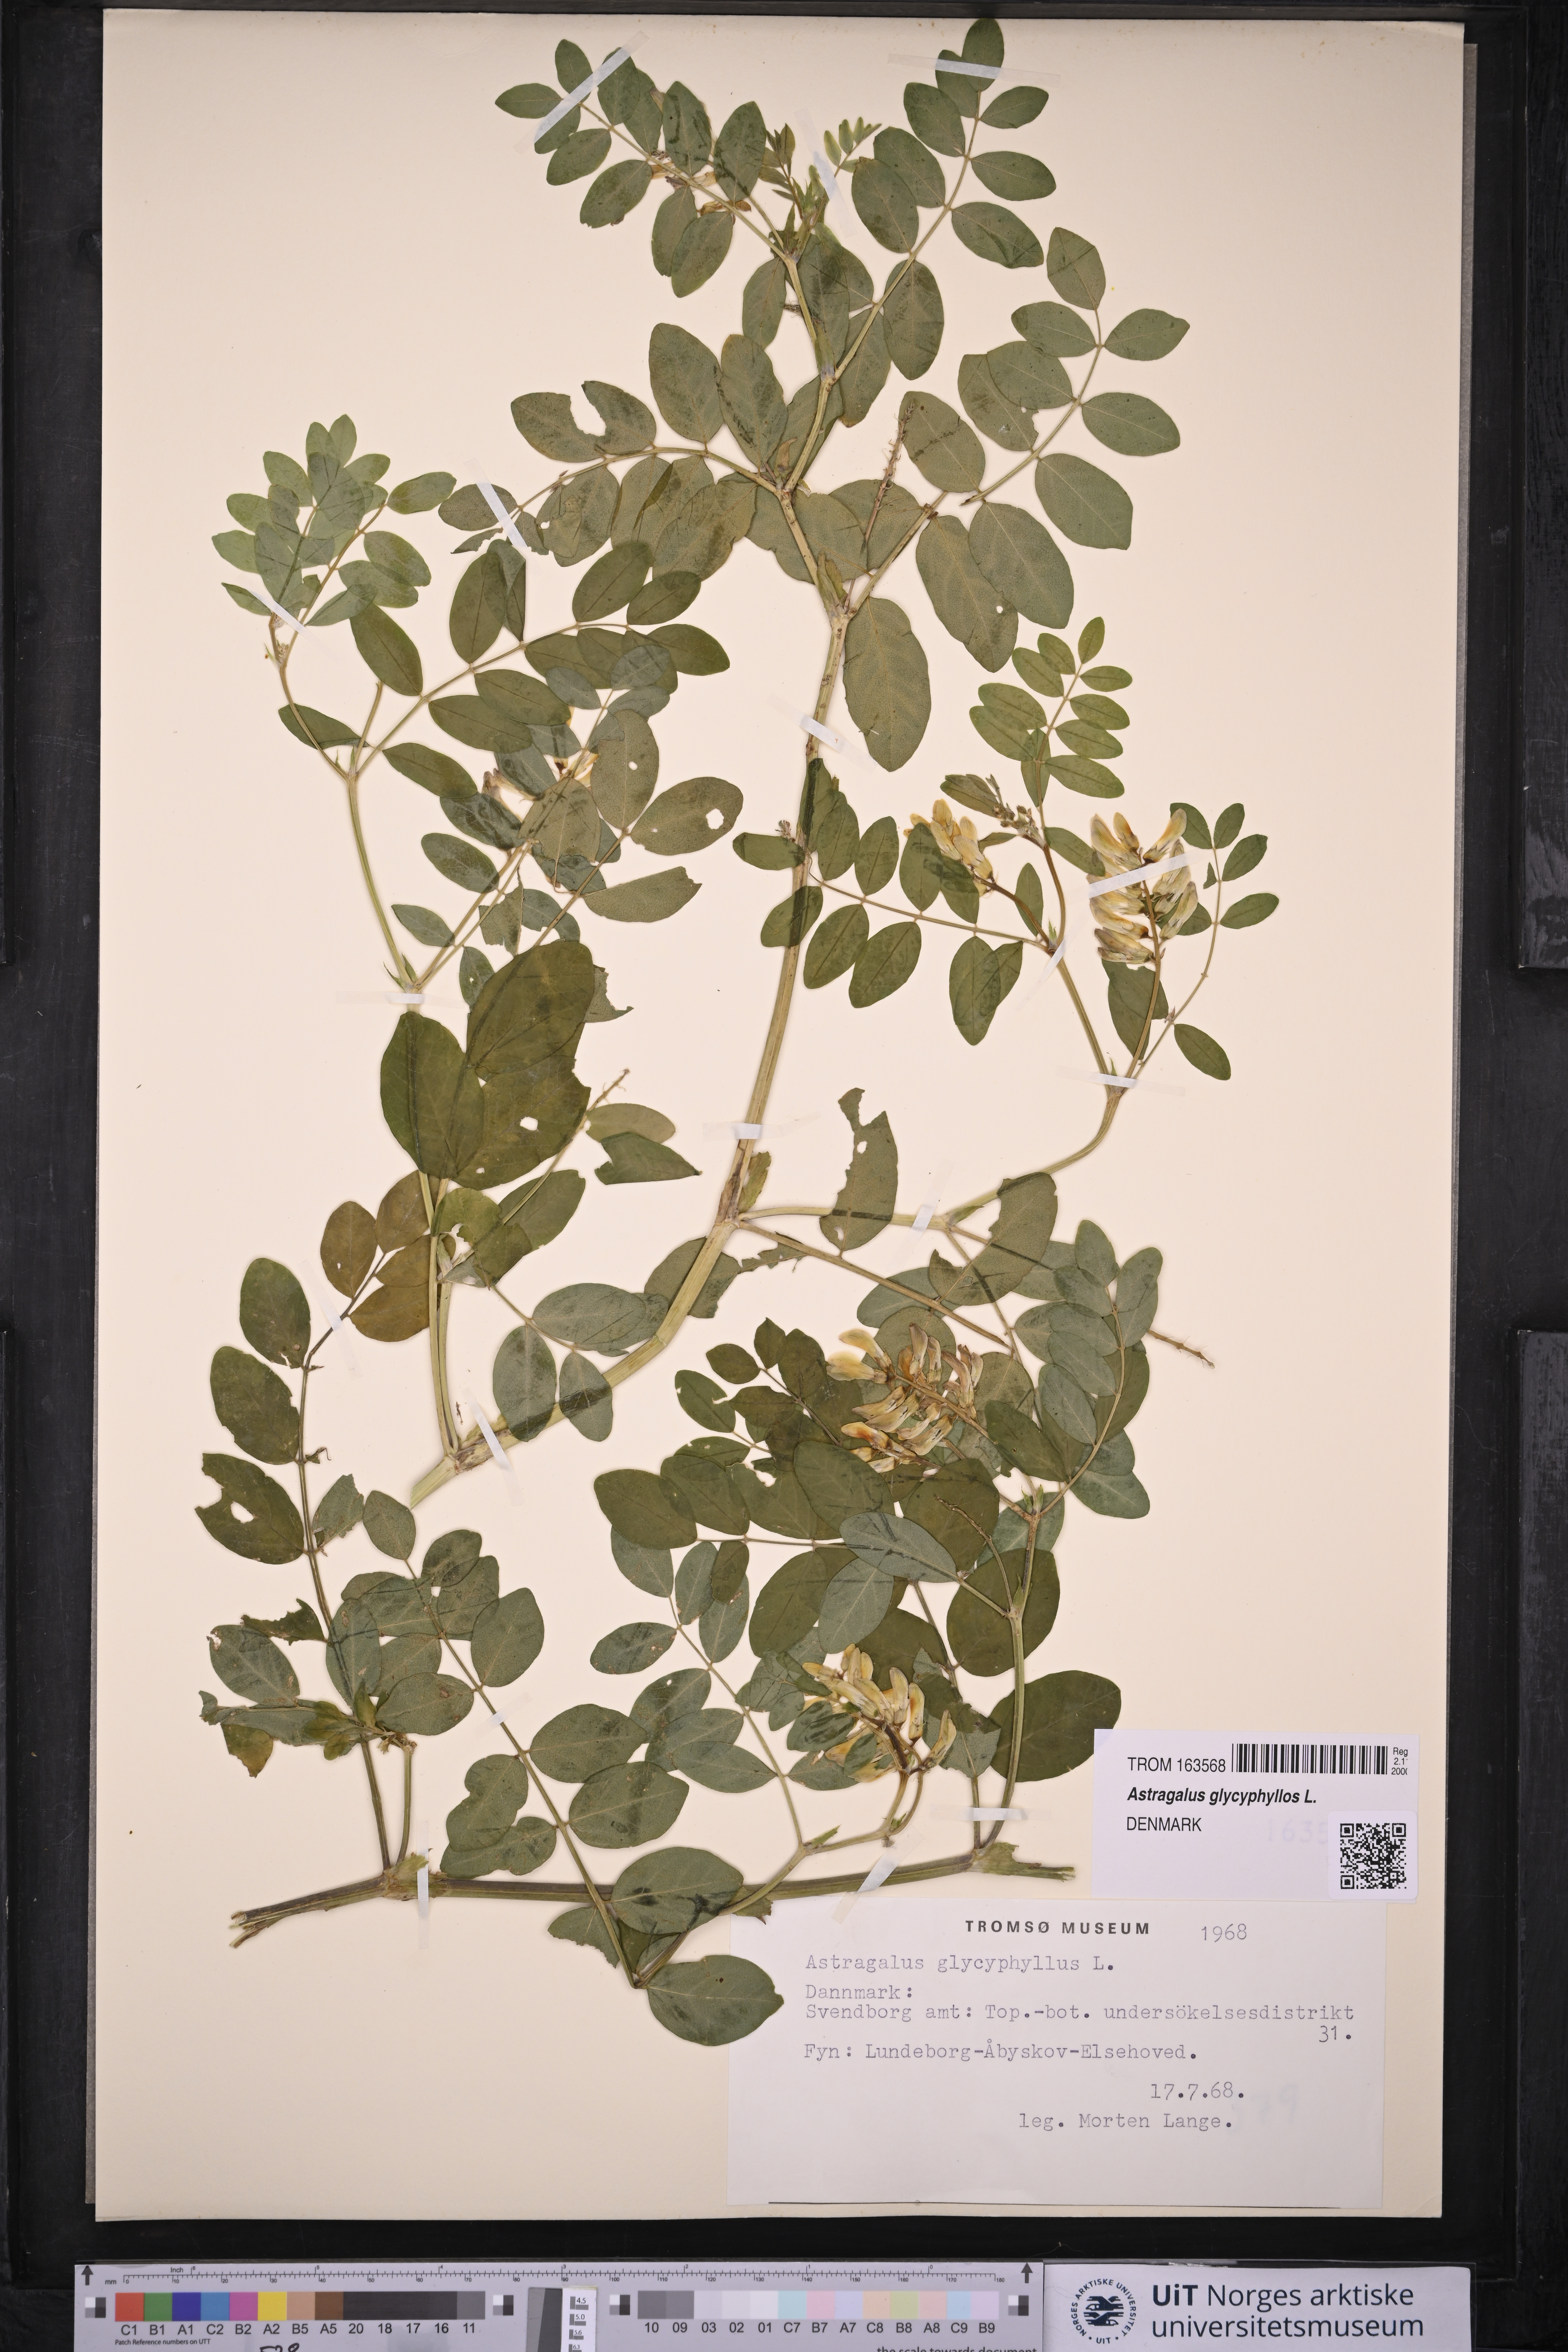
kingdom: Plantae
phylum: Tracheophyta
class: Magnoliopsida
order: Fabales
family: Fabaceae
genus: Astragalus
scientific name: Astragalus glycyphyllos
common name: Wild liquorice
